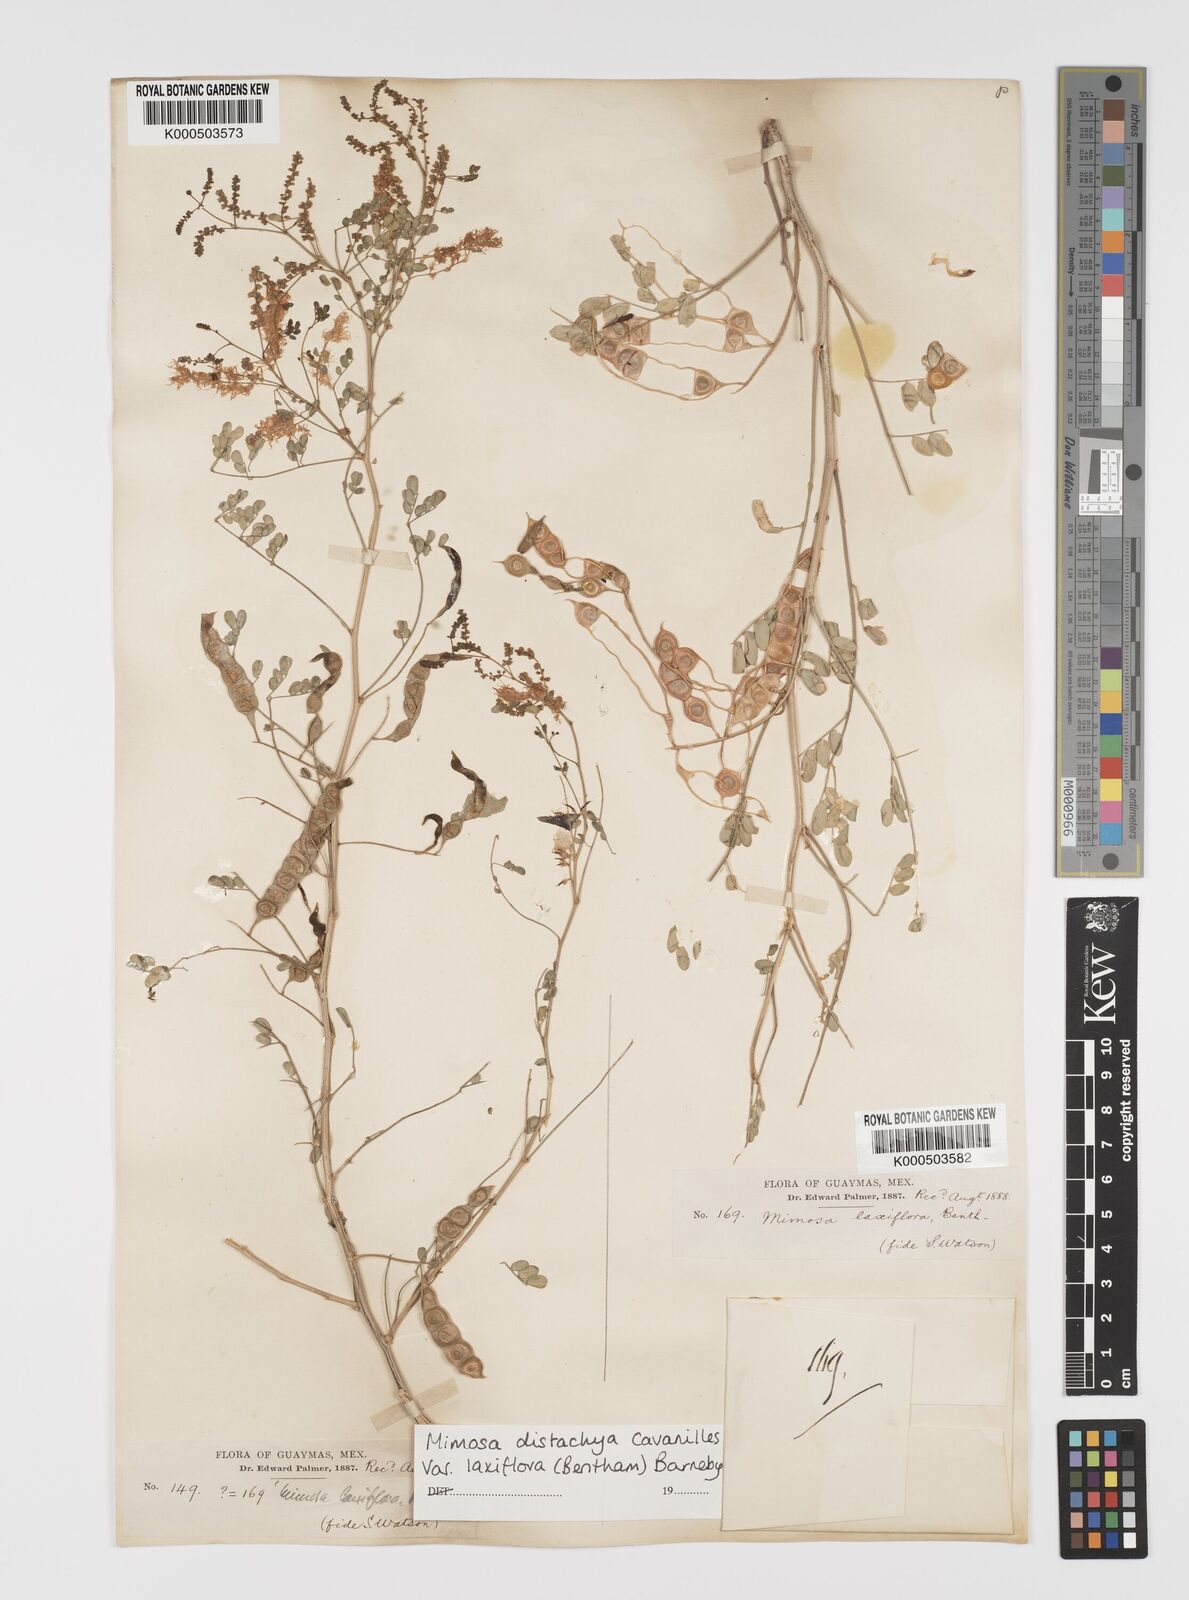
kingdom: Plantae
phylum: Tracheophyta
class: Magnoliopsida
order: Fabales
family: Fabaceae
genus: Mimosa
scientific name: Mimosa distachya
